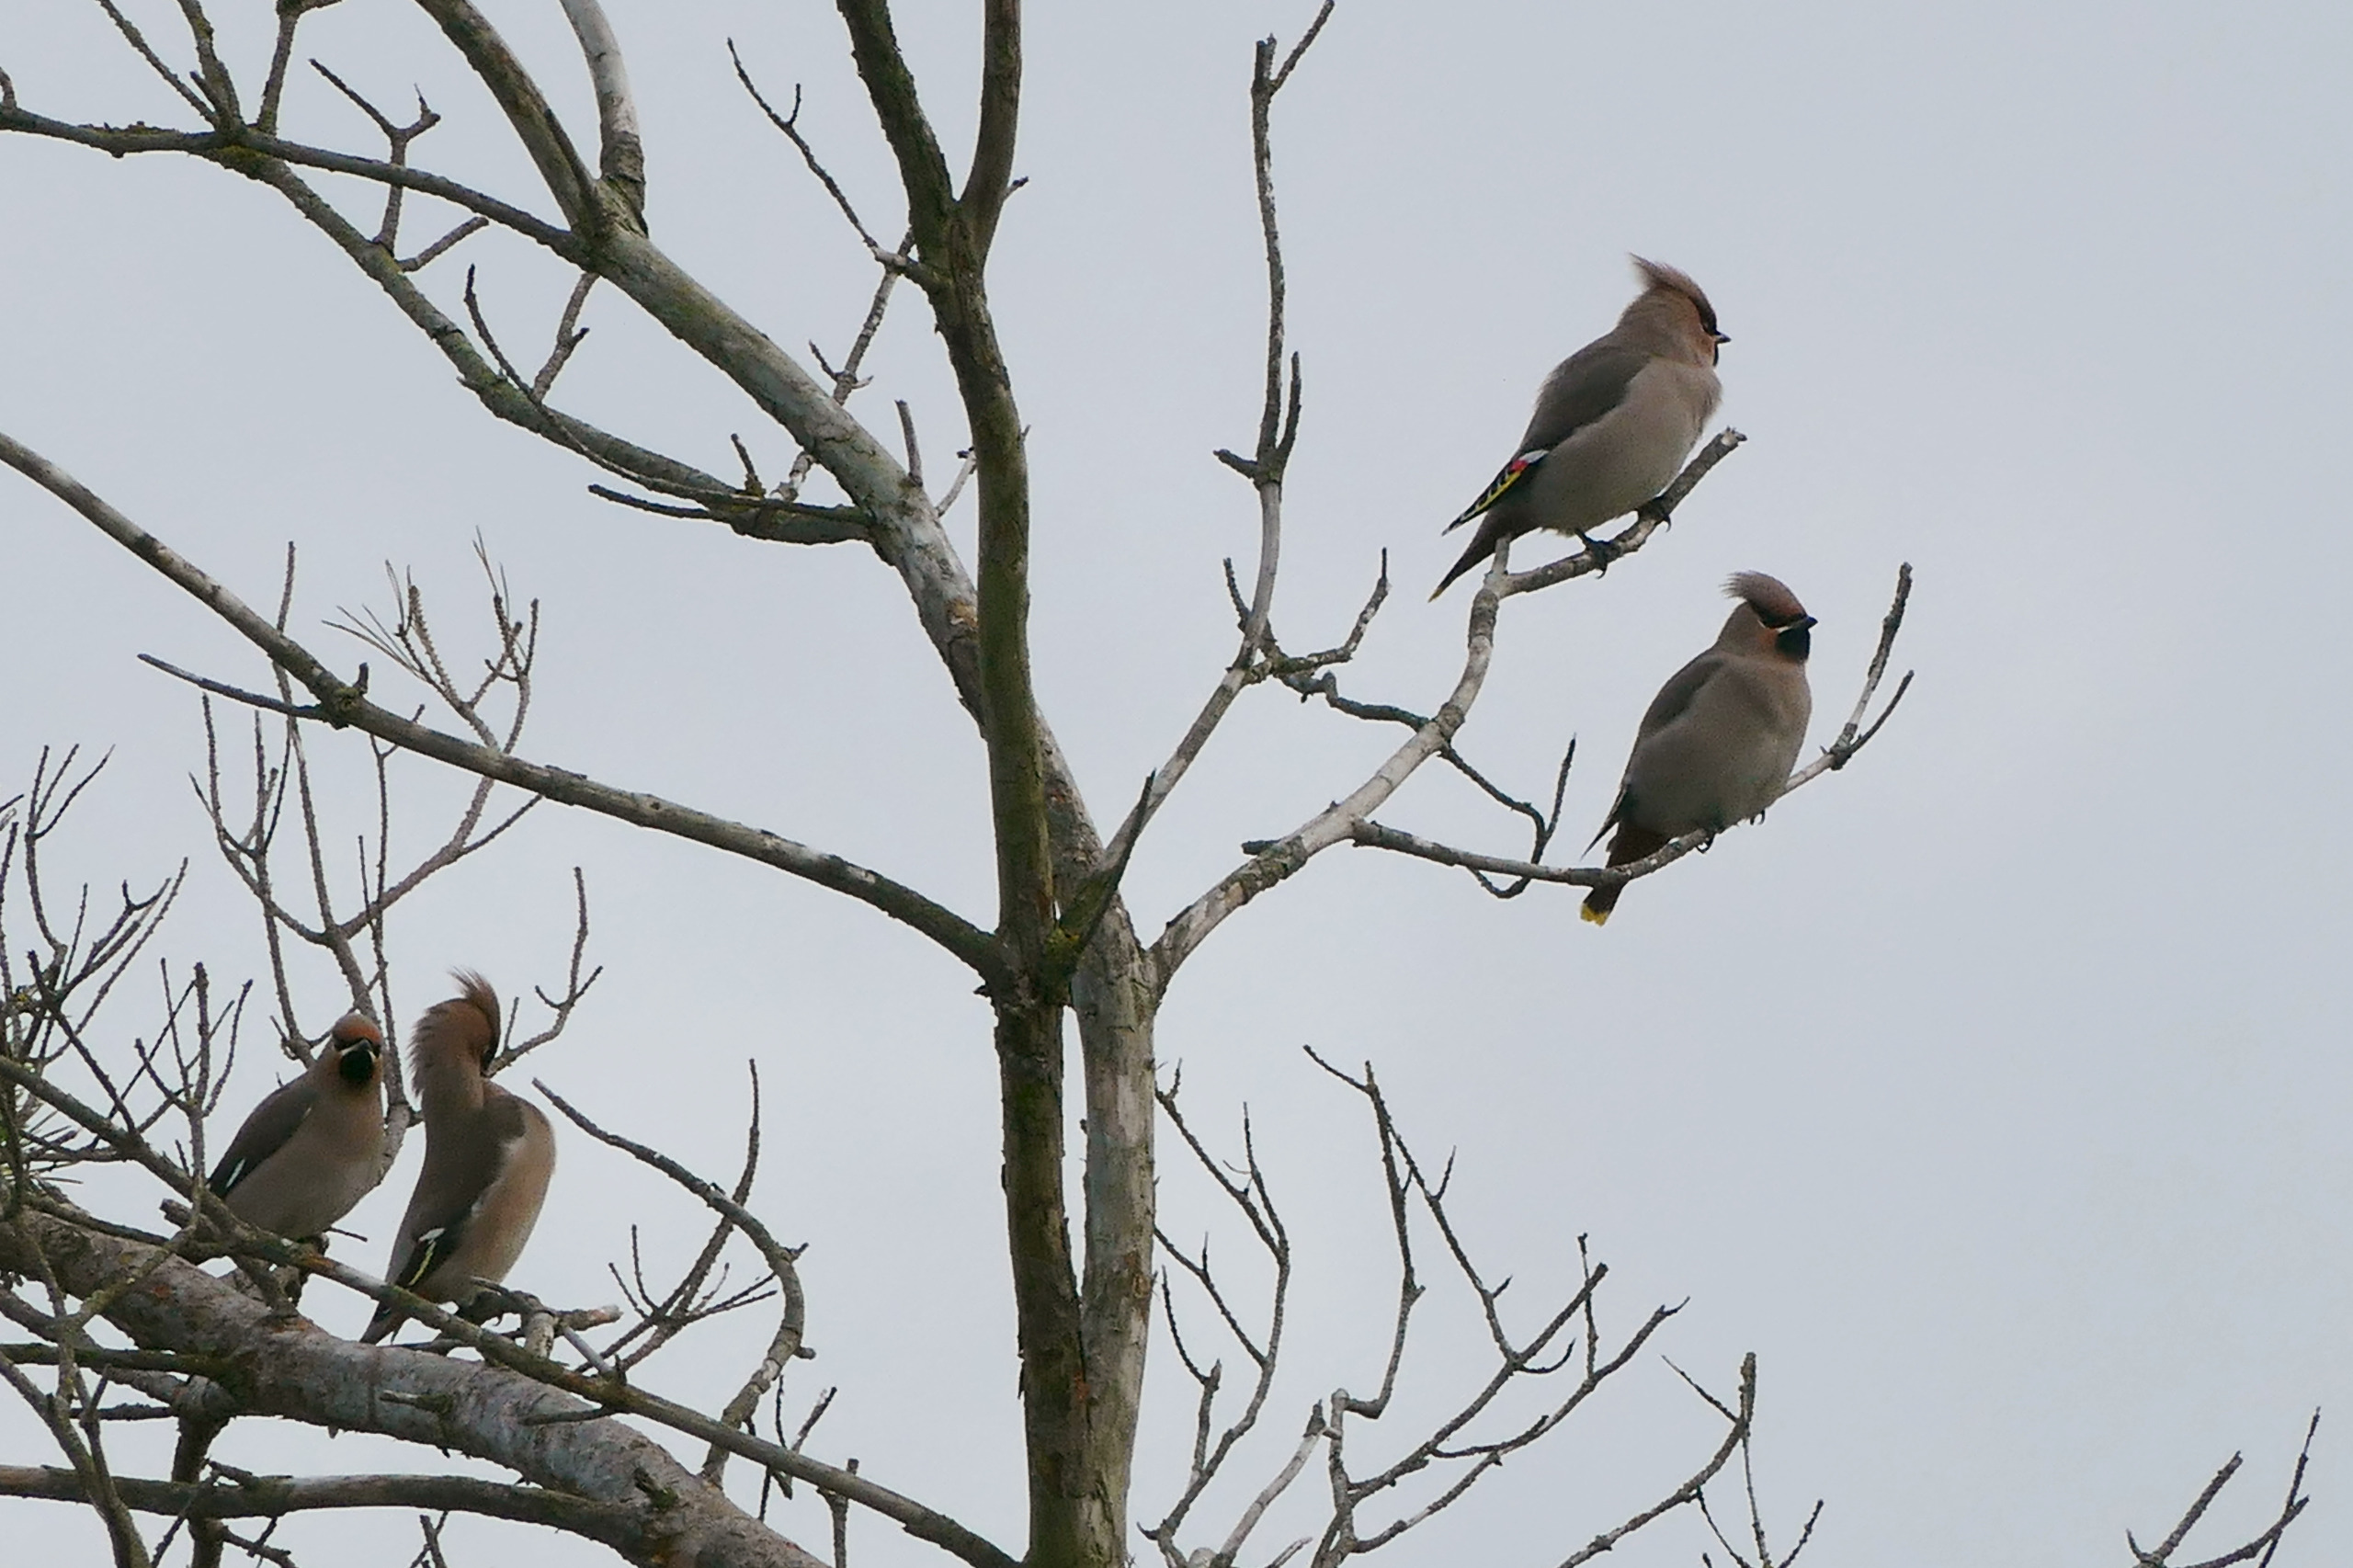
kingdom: Animalia
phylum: Chordata
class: Aves
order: Passeriformes
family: Bombycillidae
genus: Bombycilla
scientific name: Bombycilla garrulus
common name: Silkehale
